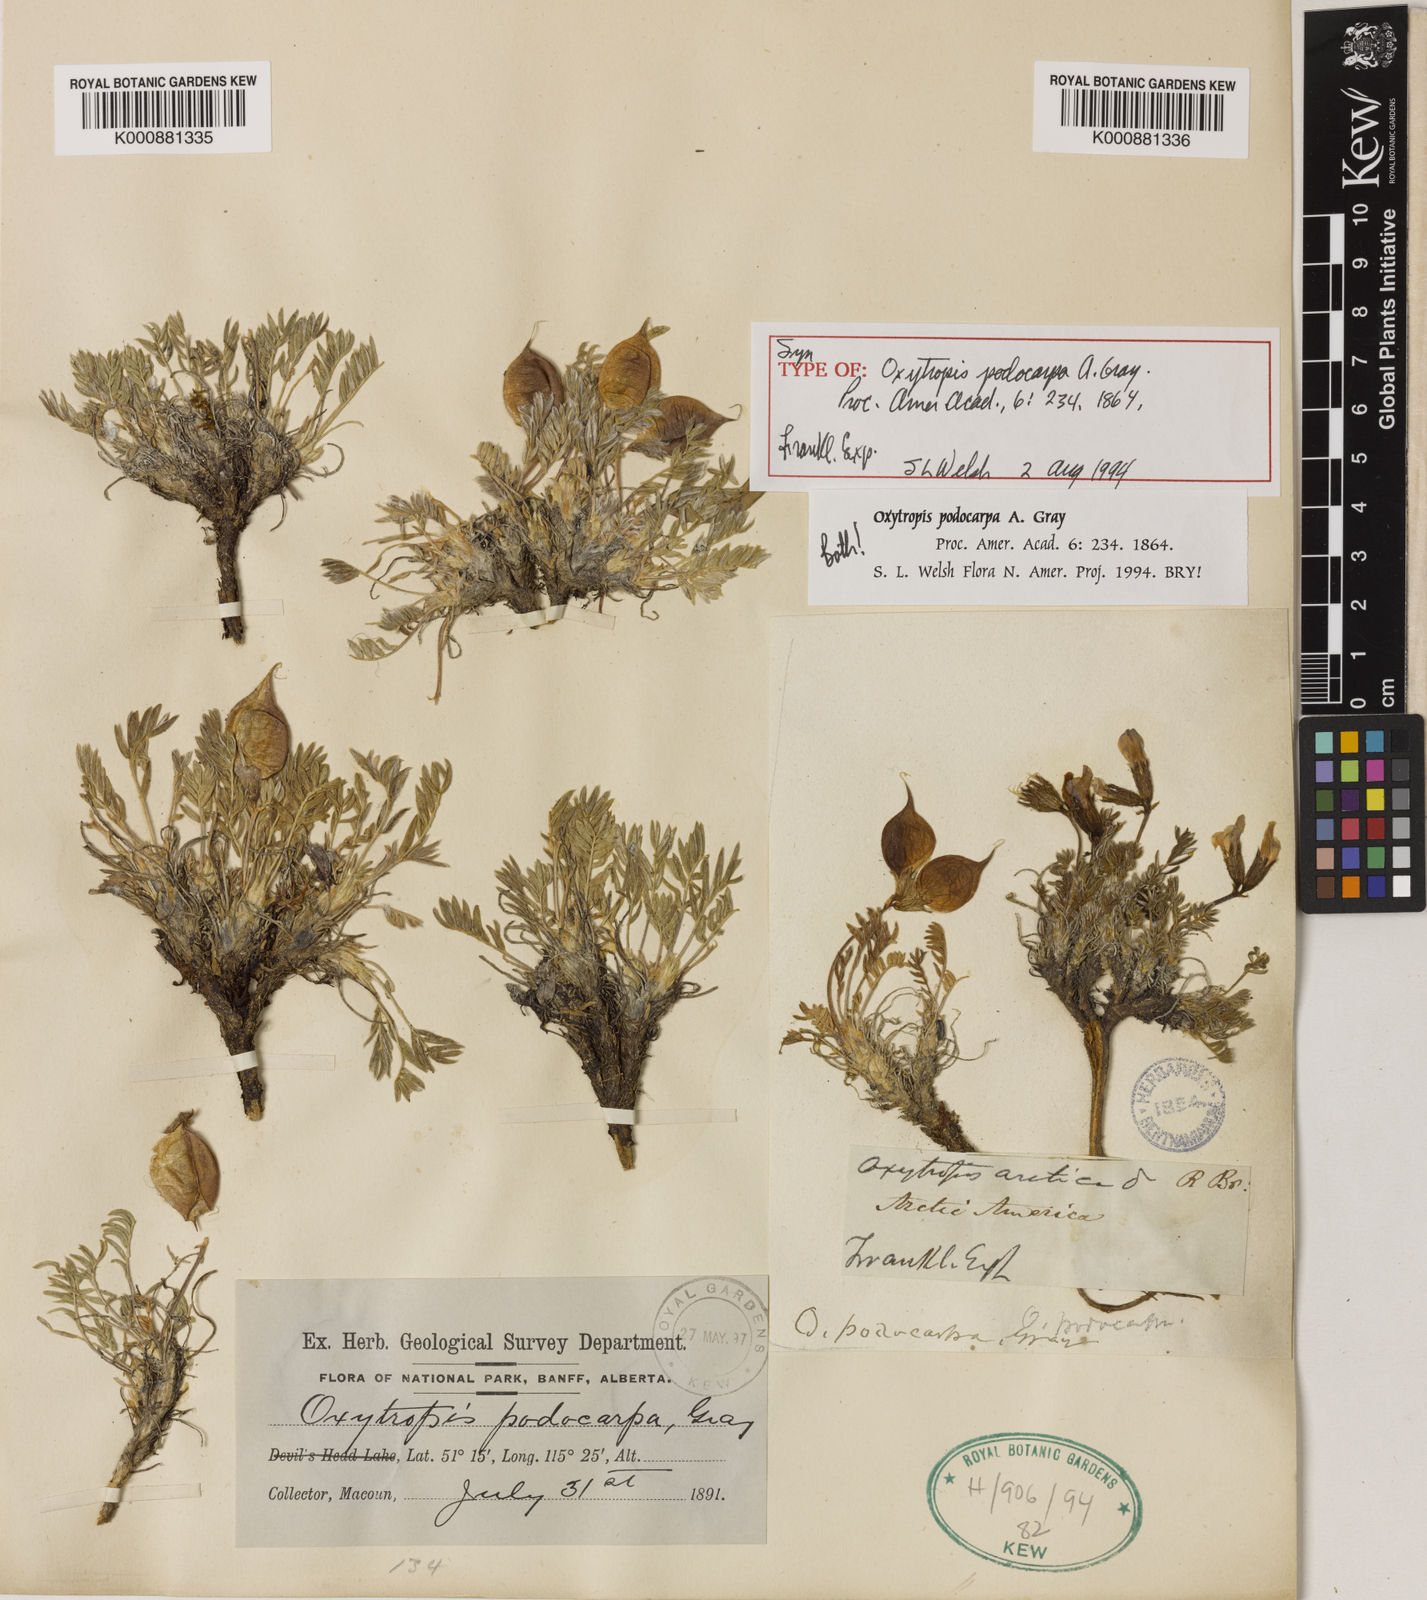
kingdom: Plantae
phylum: Tracheophyta
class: Magnoliopsida
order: Fabales
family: Fabaceae
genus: Oxytropis
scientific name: Oxytropis podocarpa
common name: Gray's oxytrope
